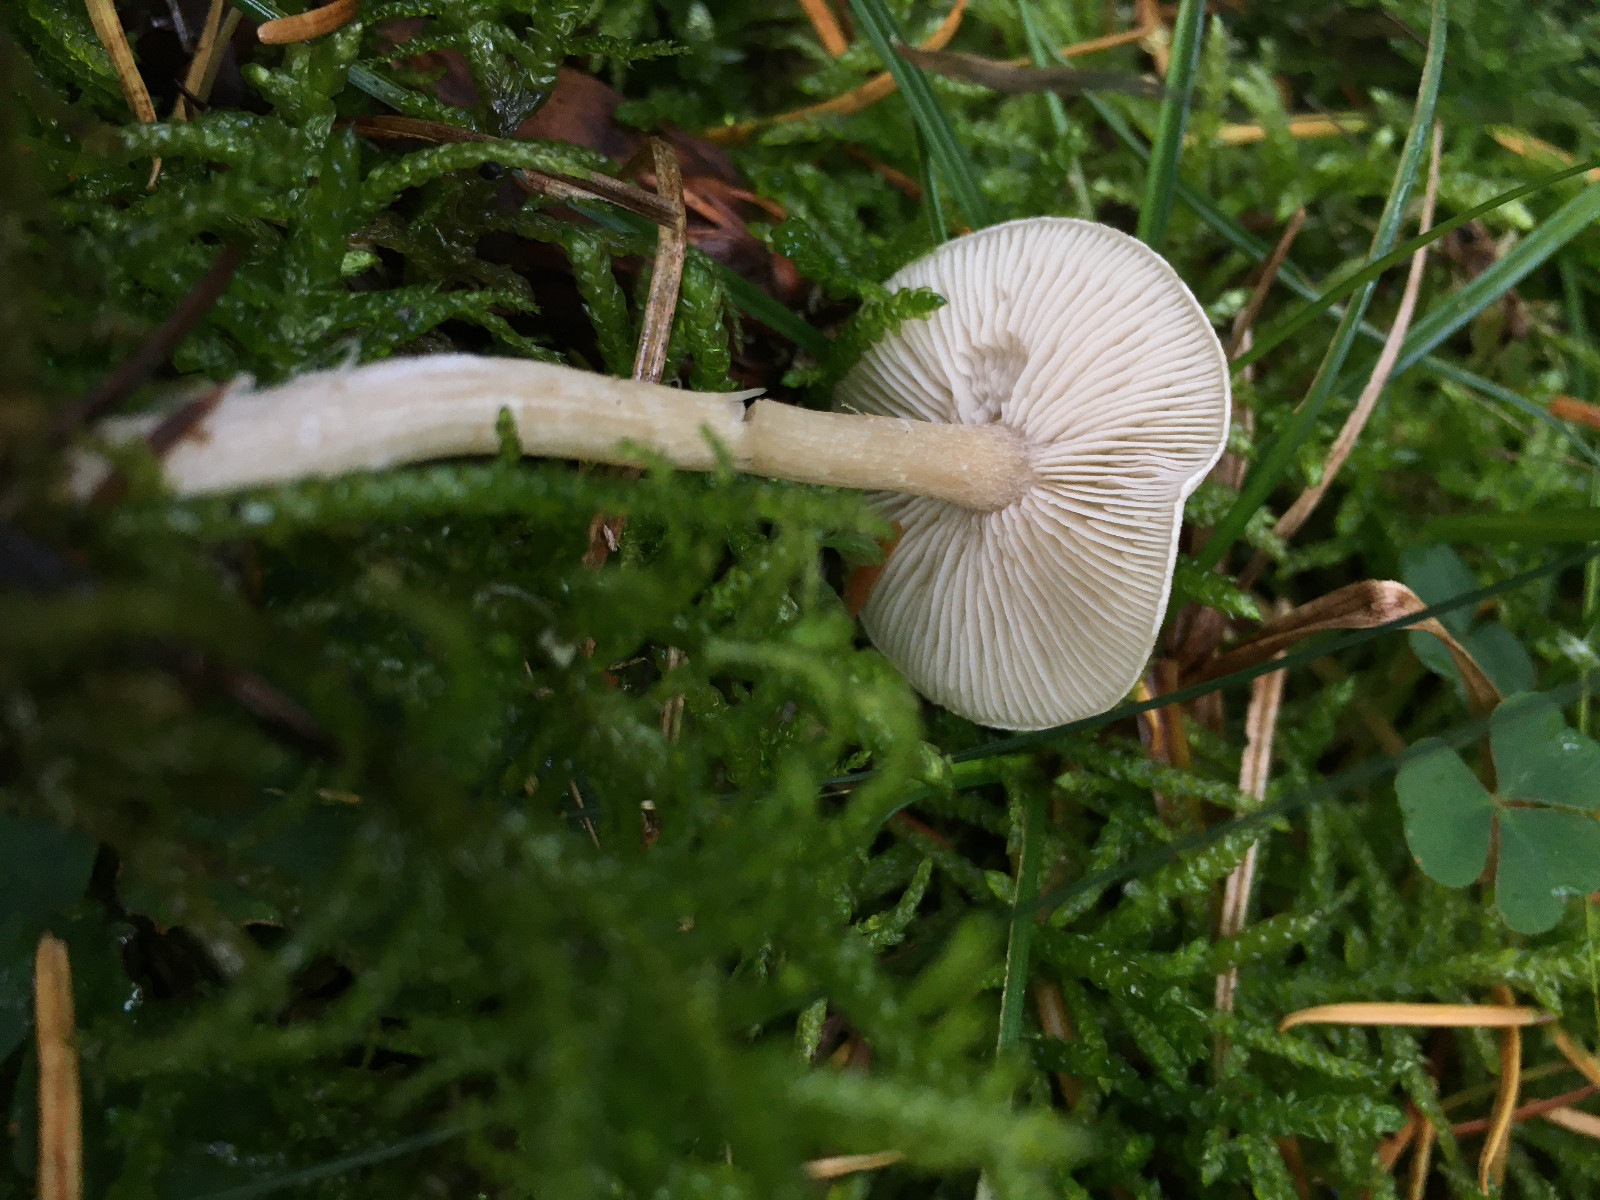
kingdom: Fungi
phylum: Basidiomycota
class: Agaricomycetes
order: Agaricales
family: Tricholomataceae
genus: Clitocybe
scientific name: Clitocybe fragrans
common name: vellugtende tragthat
